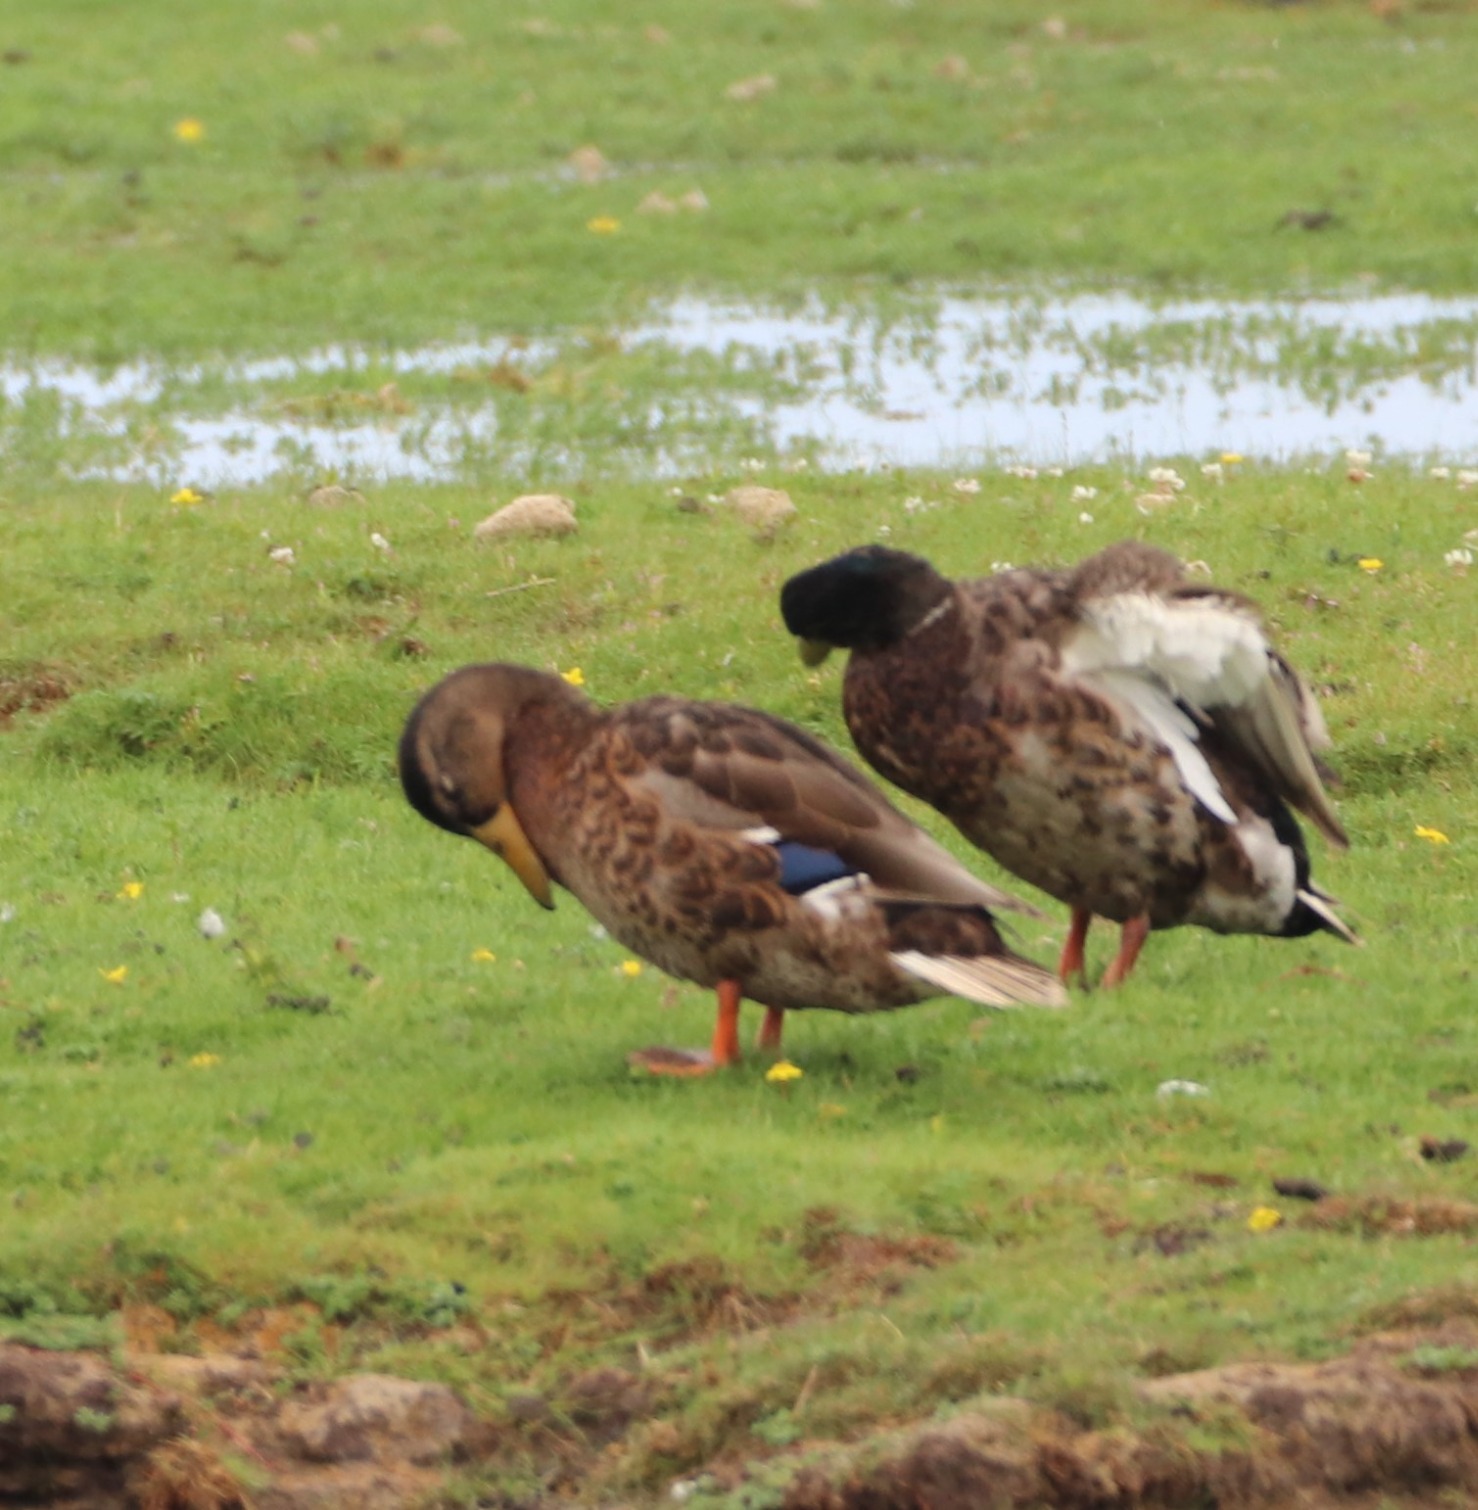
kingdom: Animalia
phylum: Chordata
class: Aves
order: Anseriformes
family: Anatidae
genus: Anas
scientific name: Anas platyrhynchos
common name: Gråand
